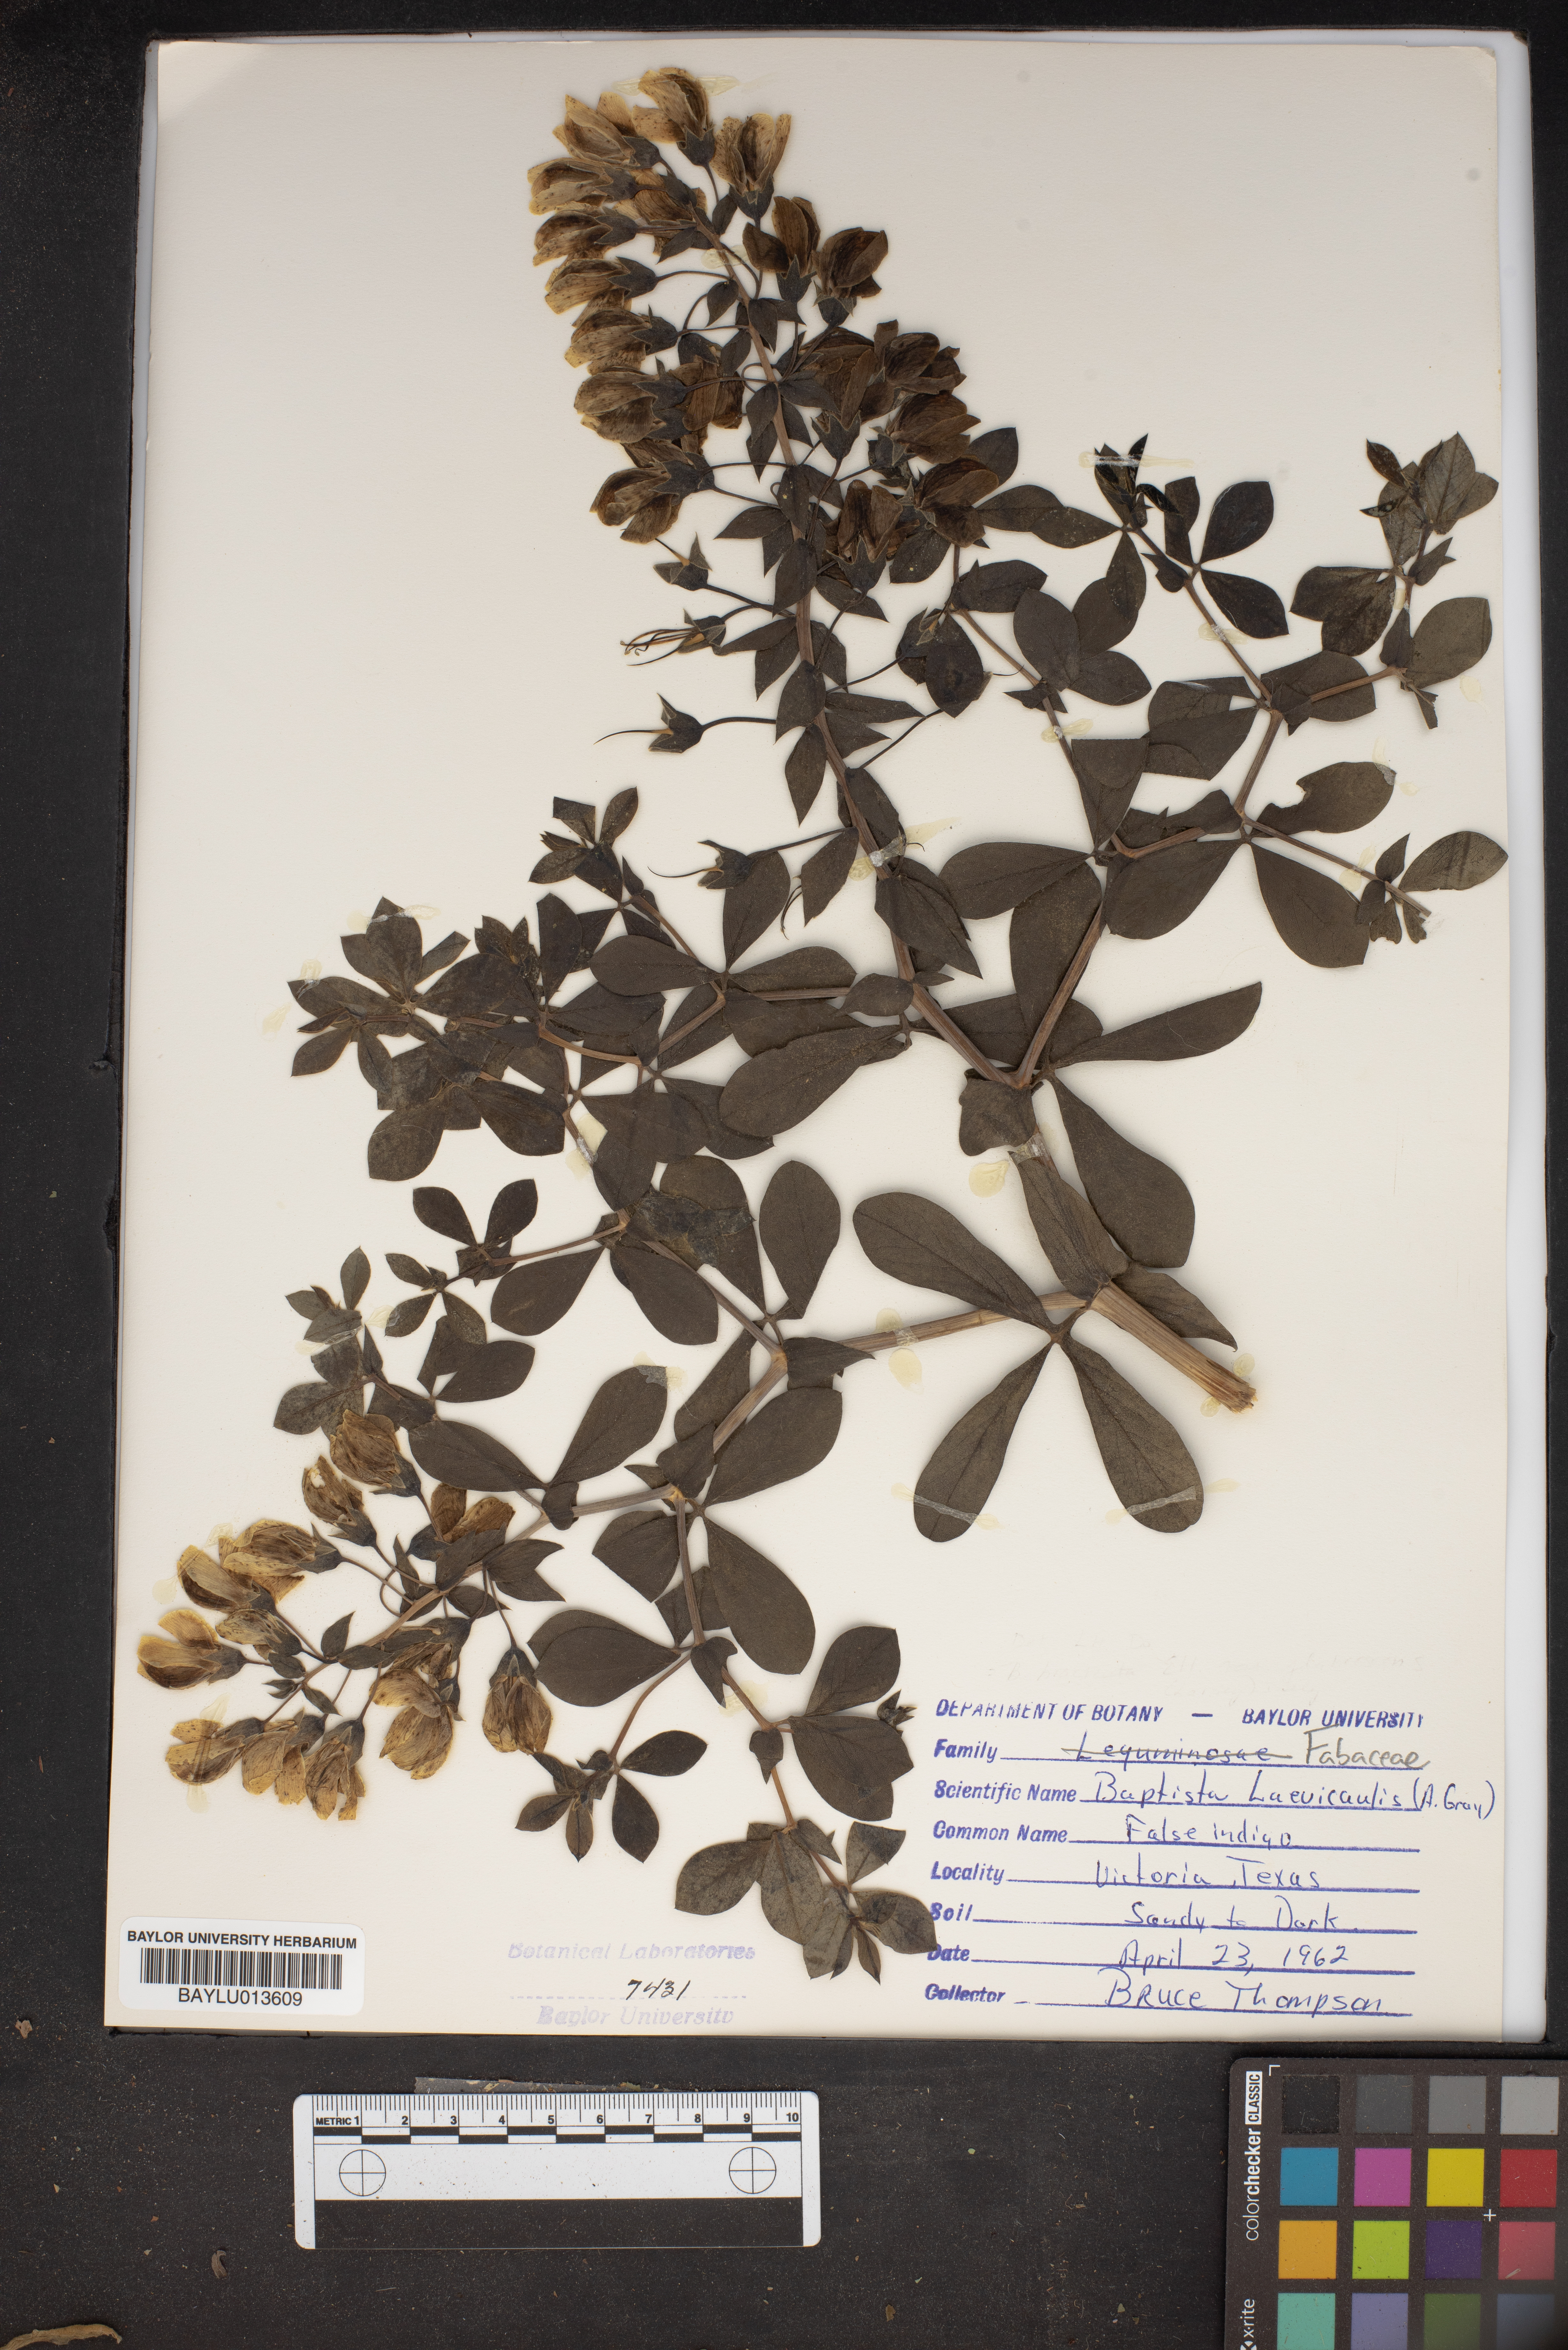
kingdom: Plantae
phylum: Tracheophyta
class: Magnoliopsida
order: Fabales
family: Fabaceae
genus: Baptisia
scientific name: Baptisia bracteata
